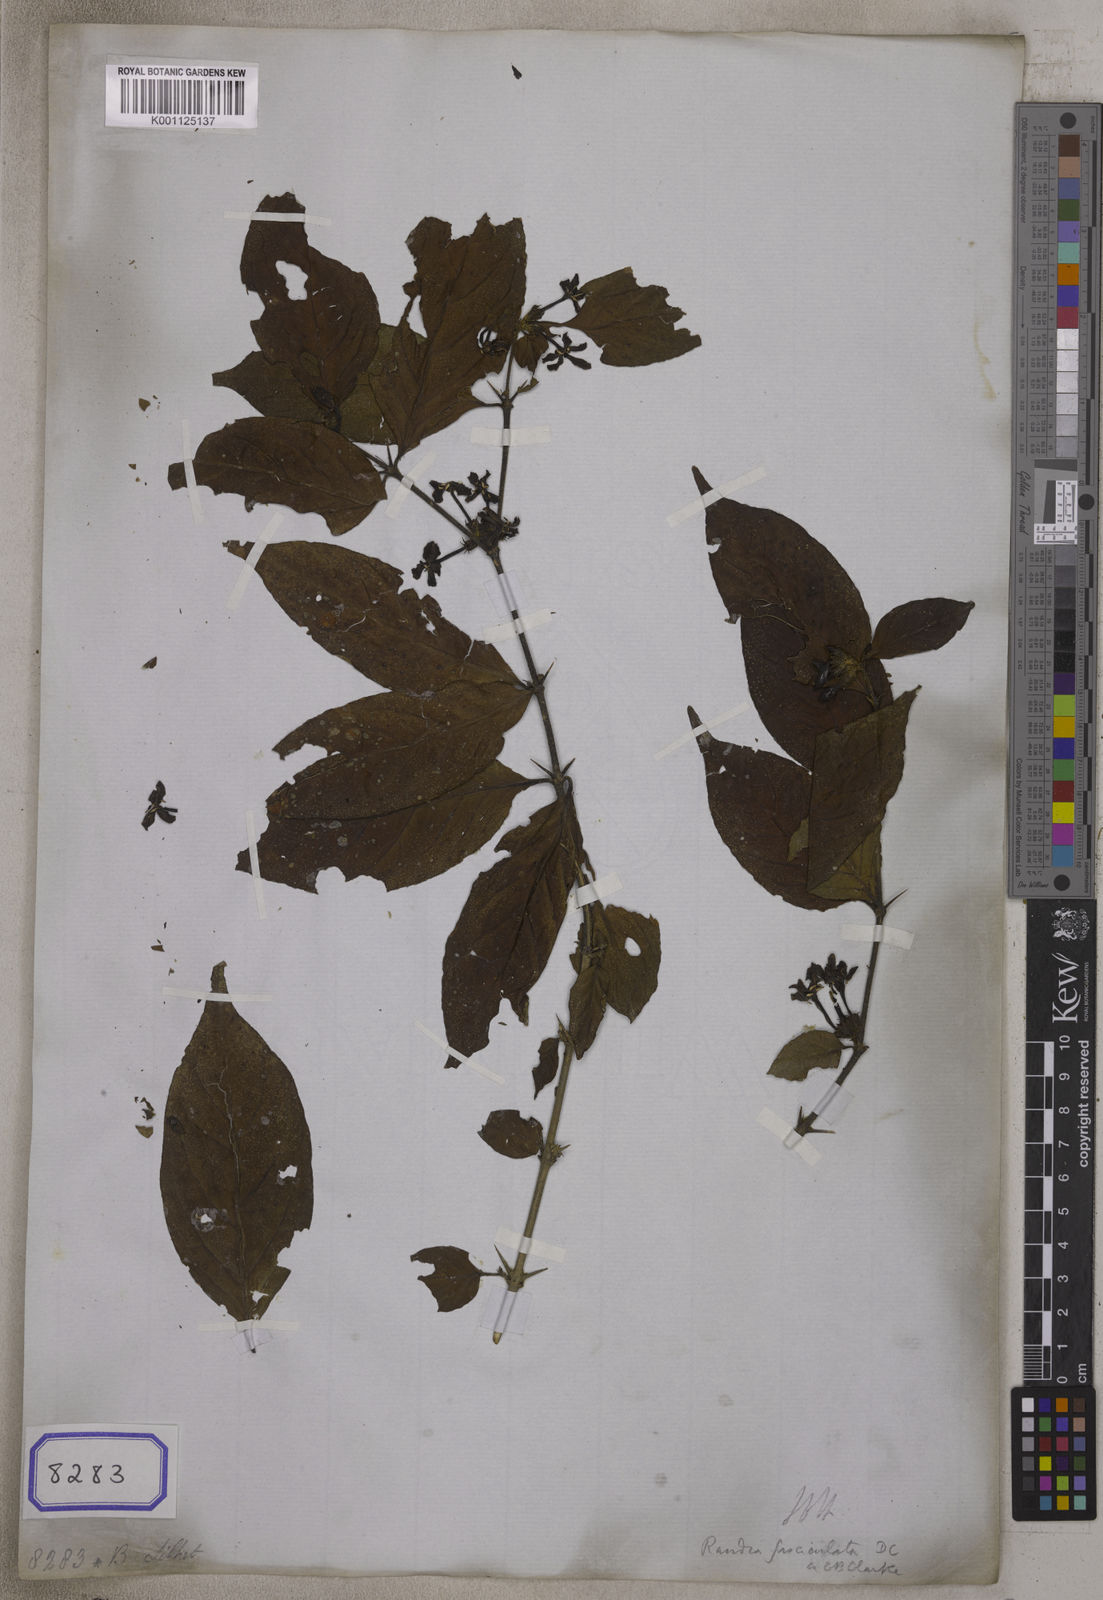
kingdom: Plantae
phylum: Tracheophyta
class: Magnoliopsida
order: Gentianales
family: Rubiaceae
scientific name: Rubiaceae
